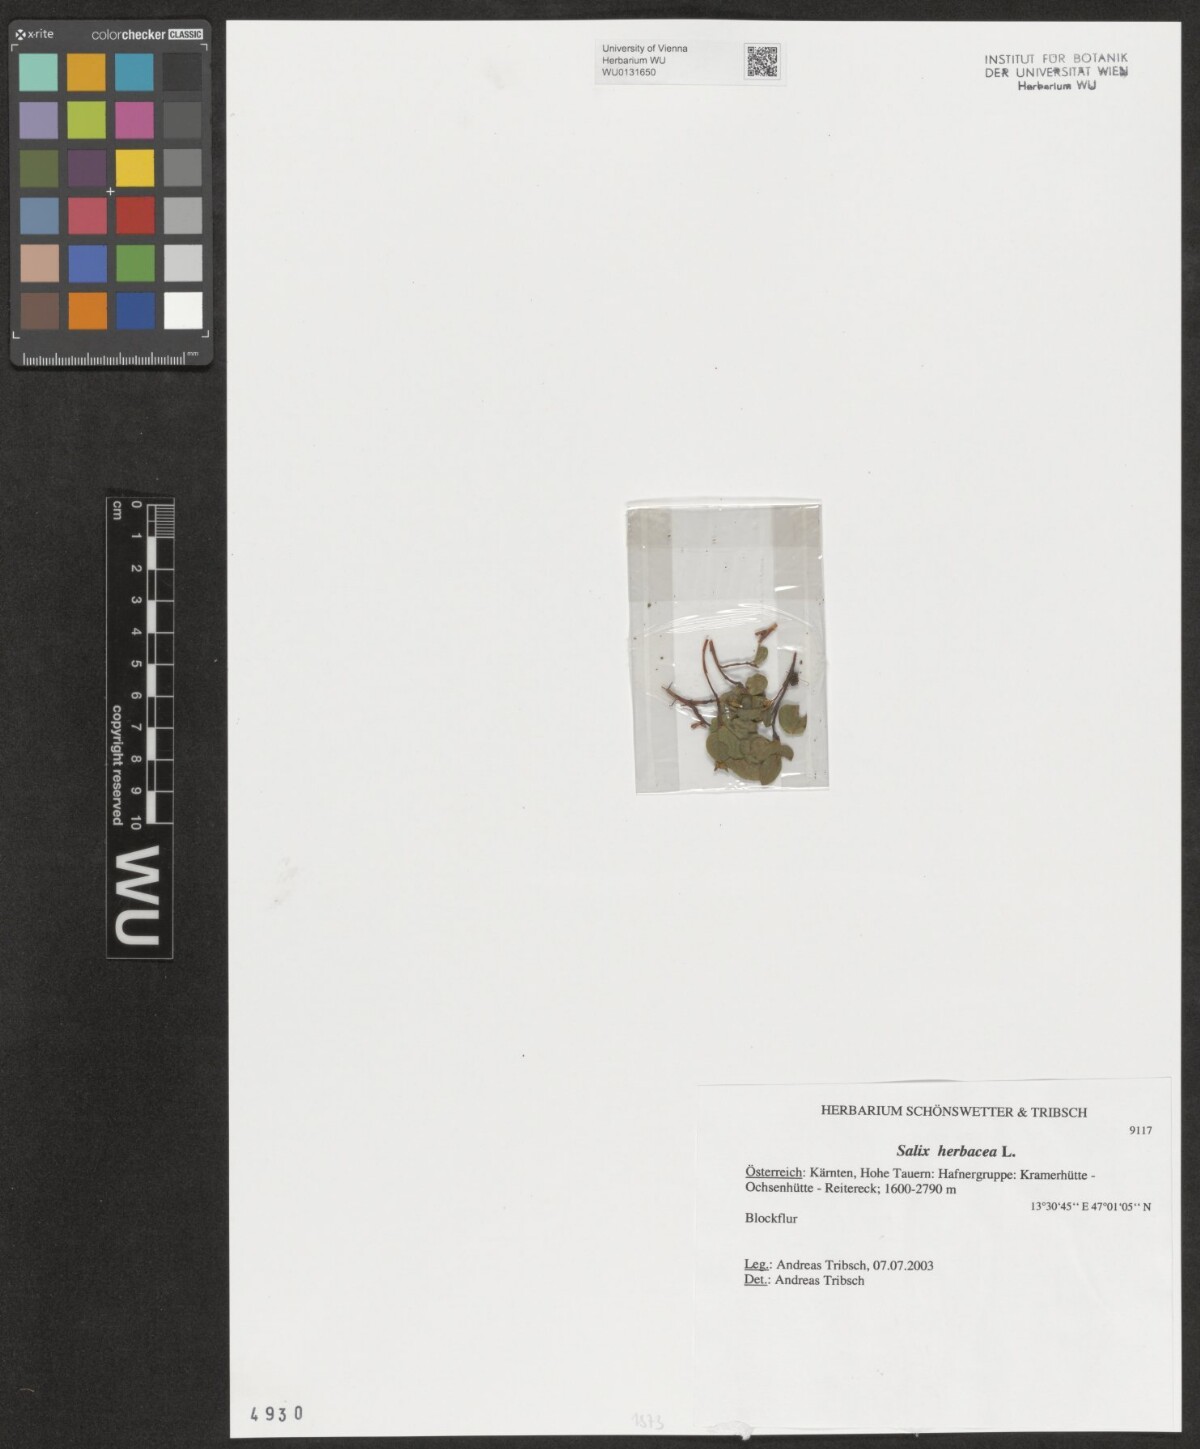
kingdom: Plantae
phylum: Tracheophyta
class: Magnoliopsida
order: Malpighiales
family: Salicaceae
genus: Salix
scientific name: Salix herbacea
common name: Dwarf willow
